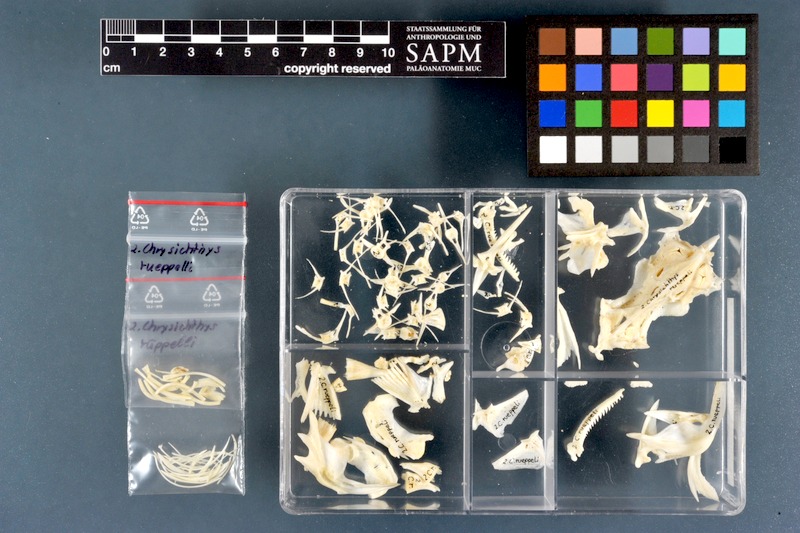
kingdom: Animalia
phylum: Chordata
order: Siluriformes
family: Claroteidae
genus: Chrysichthys
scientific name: Chrysichthys rueppelli
